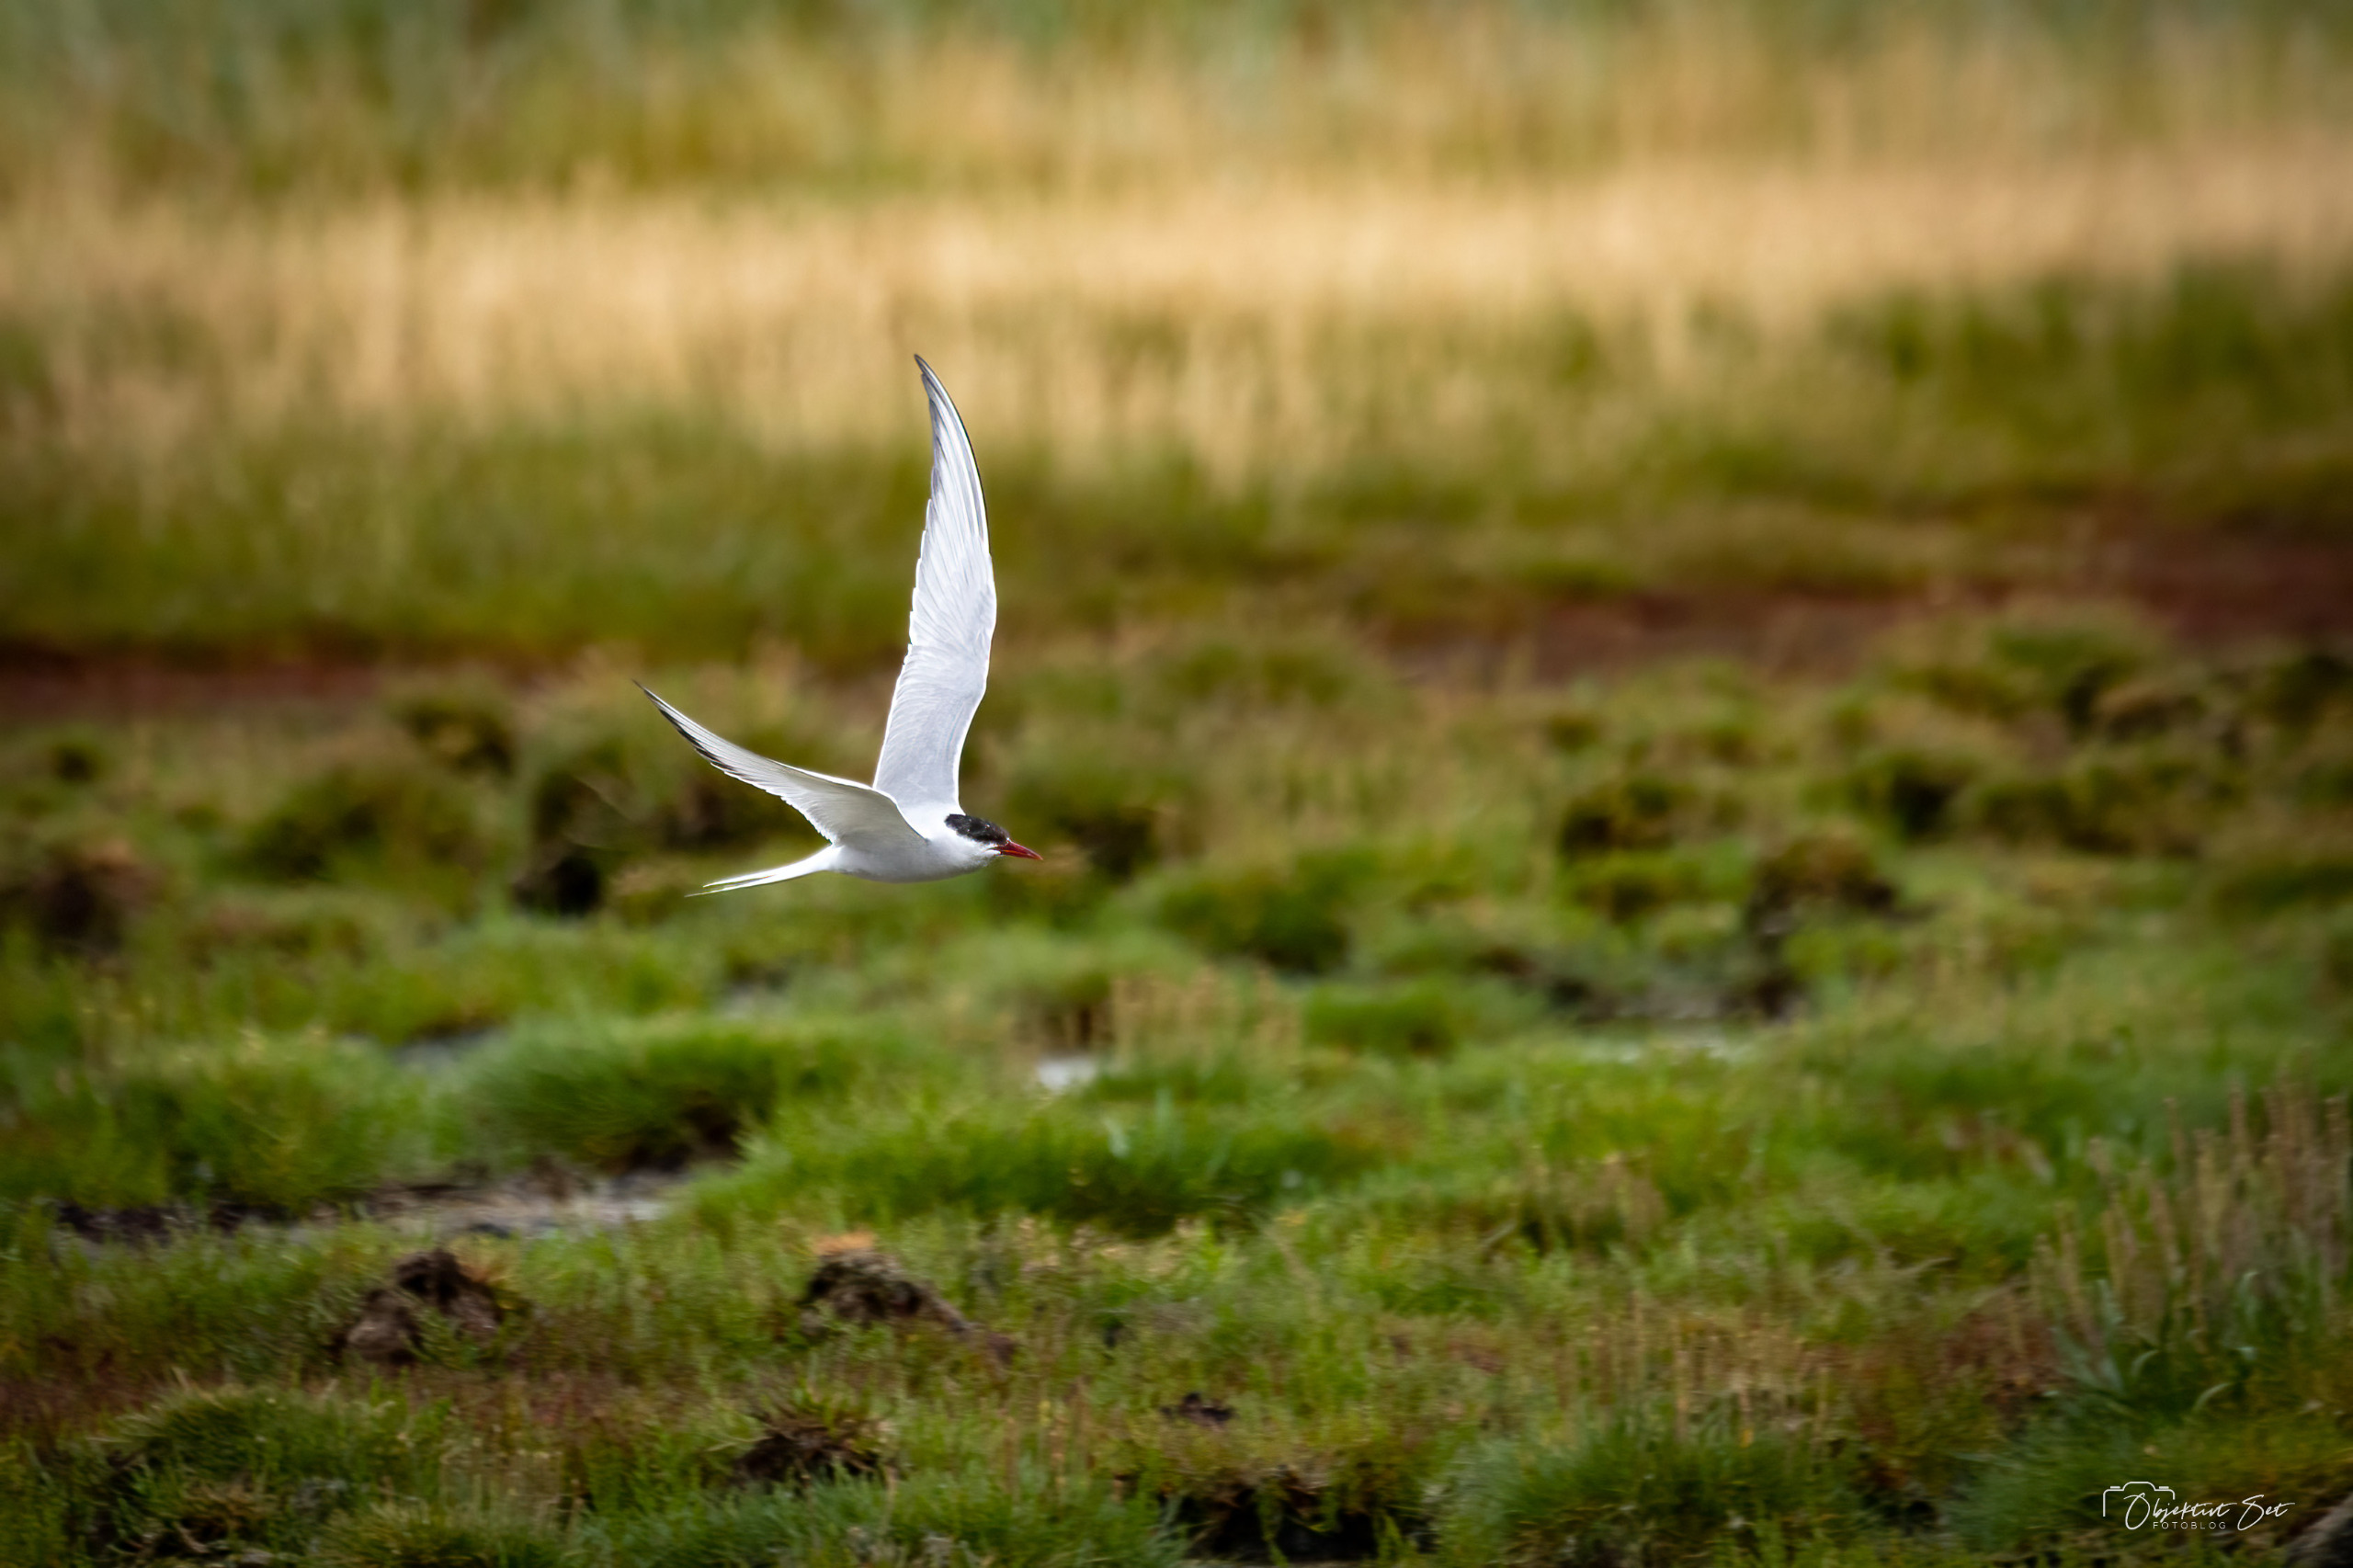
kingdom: Animalia
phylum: Chordata
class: Aves
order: Charadriiformes
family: Laridae
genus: Sterna
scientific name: Sterna paradisaea
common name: Havterne
